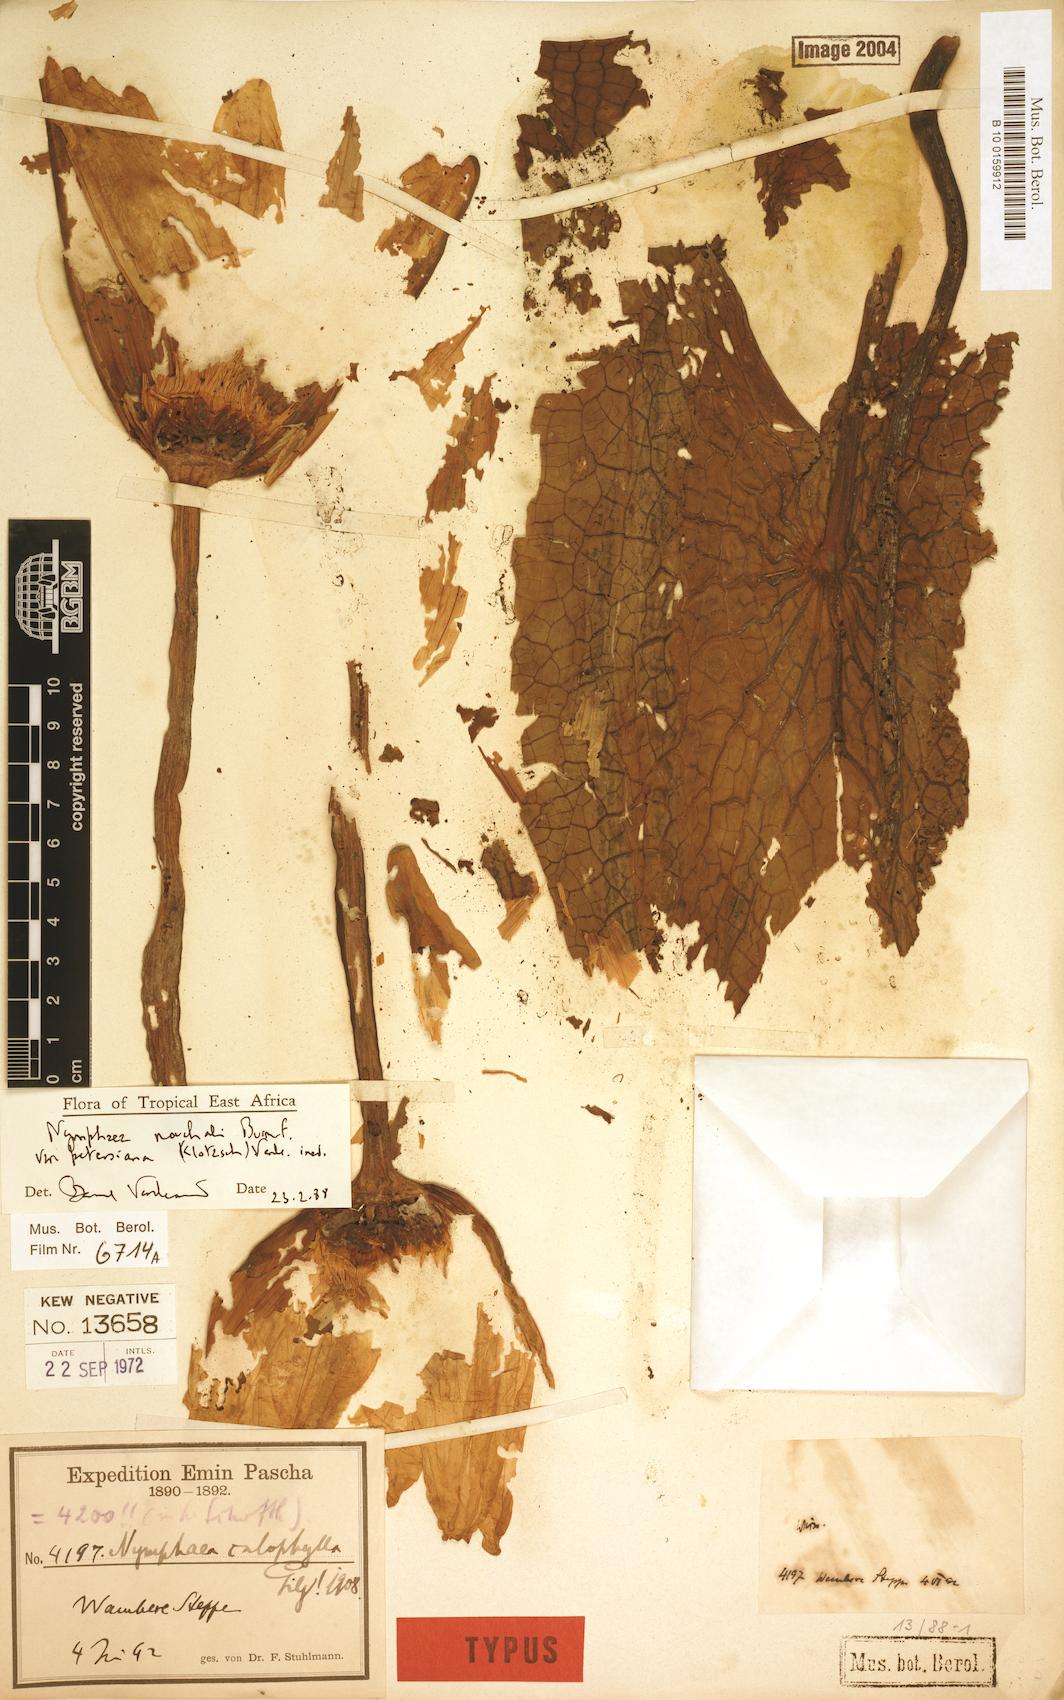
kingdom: Plantae
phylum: Tracheophyta
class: Magnoliopsida
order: Nymphaeales
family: Nymphaeaceae
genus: Nymphaea
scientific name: Nymphaea nouchali
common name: Blue lotus
